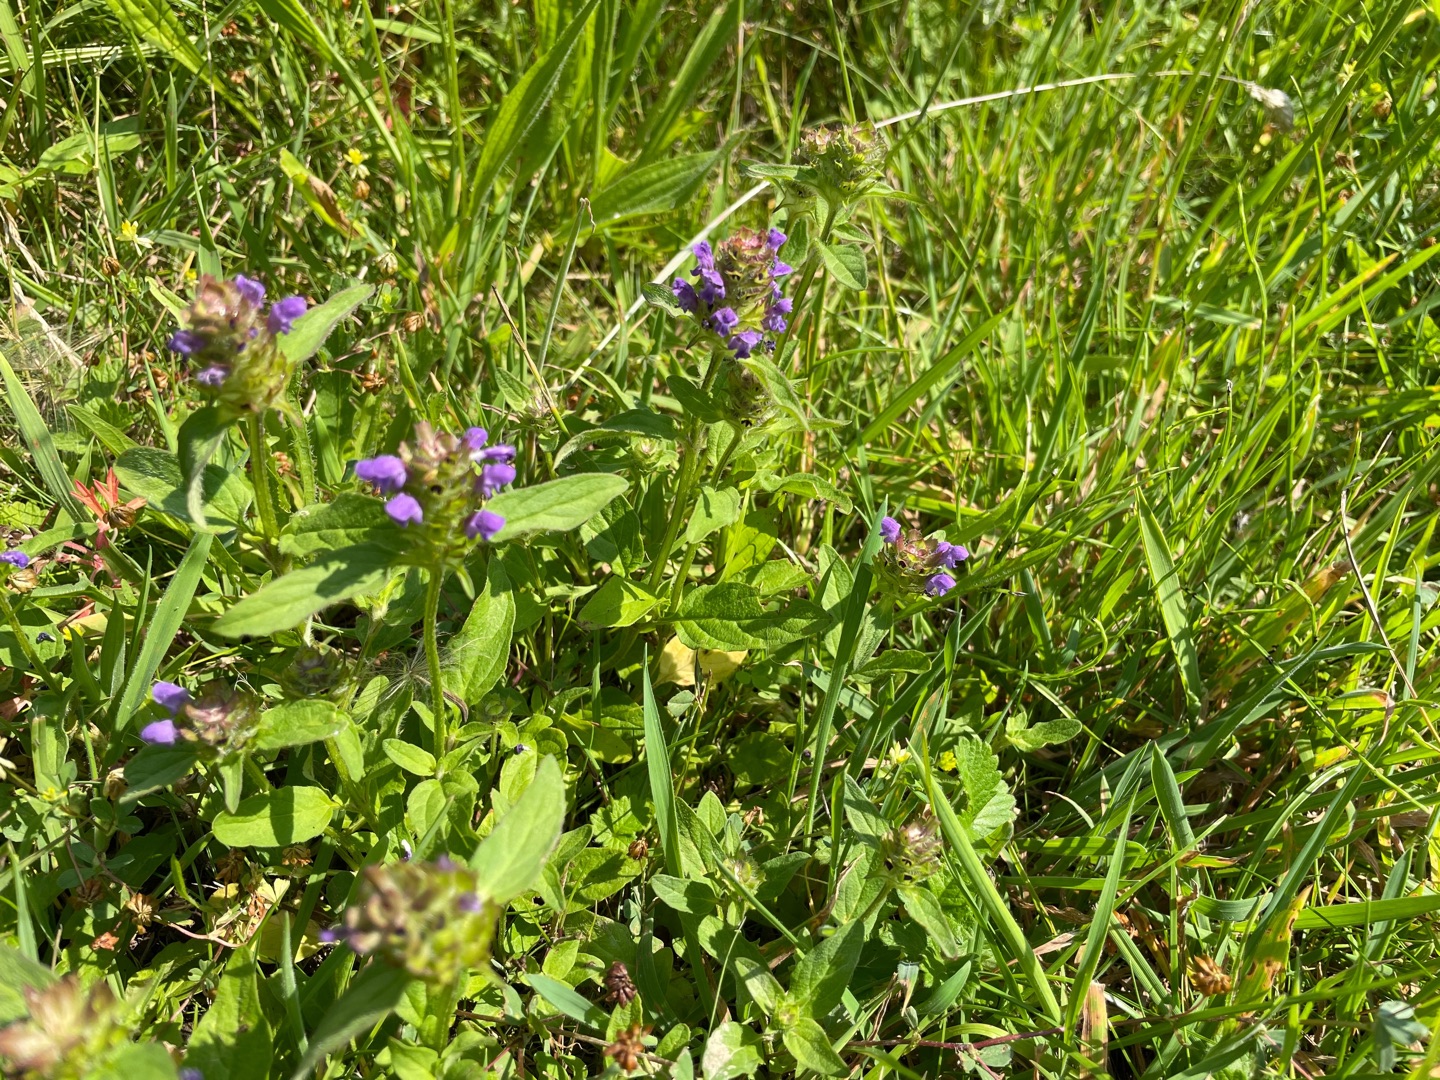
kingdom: Plantae
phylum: Tracheophyta
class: Magnoliopsida
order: Lamiales
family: Lamiaceae
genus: Prunella
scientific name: Prunella vulgaris
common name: Almindelig brunelle
